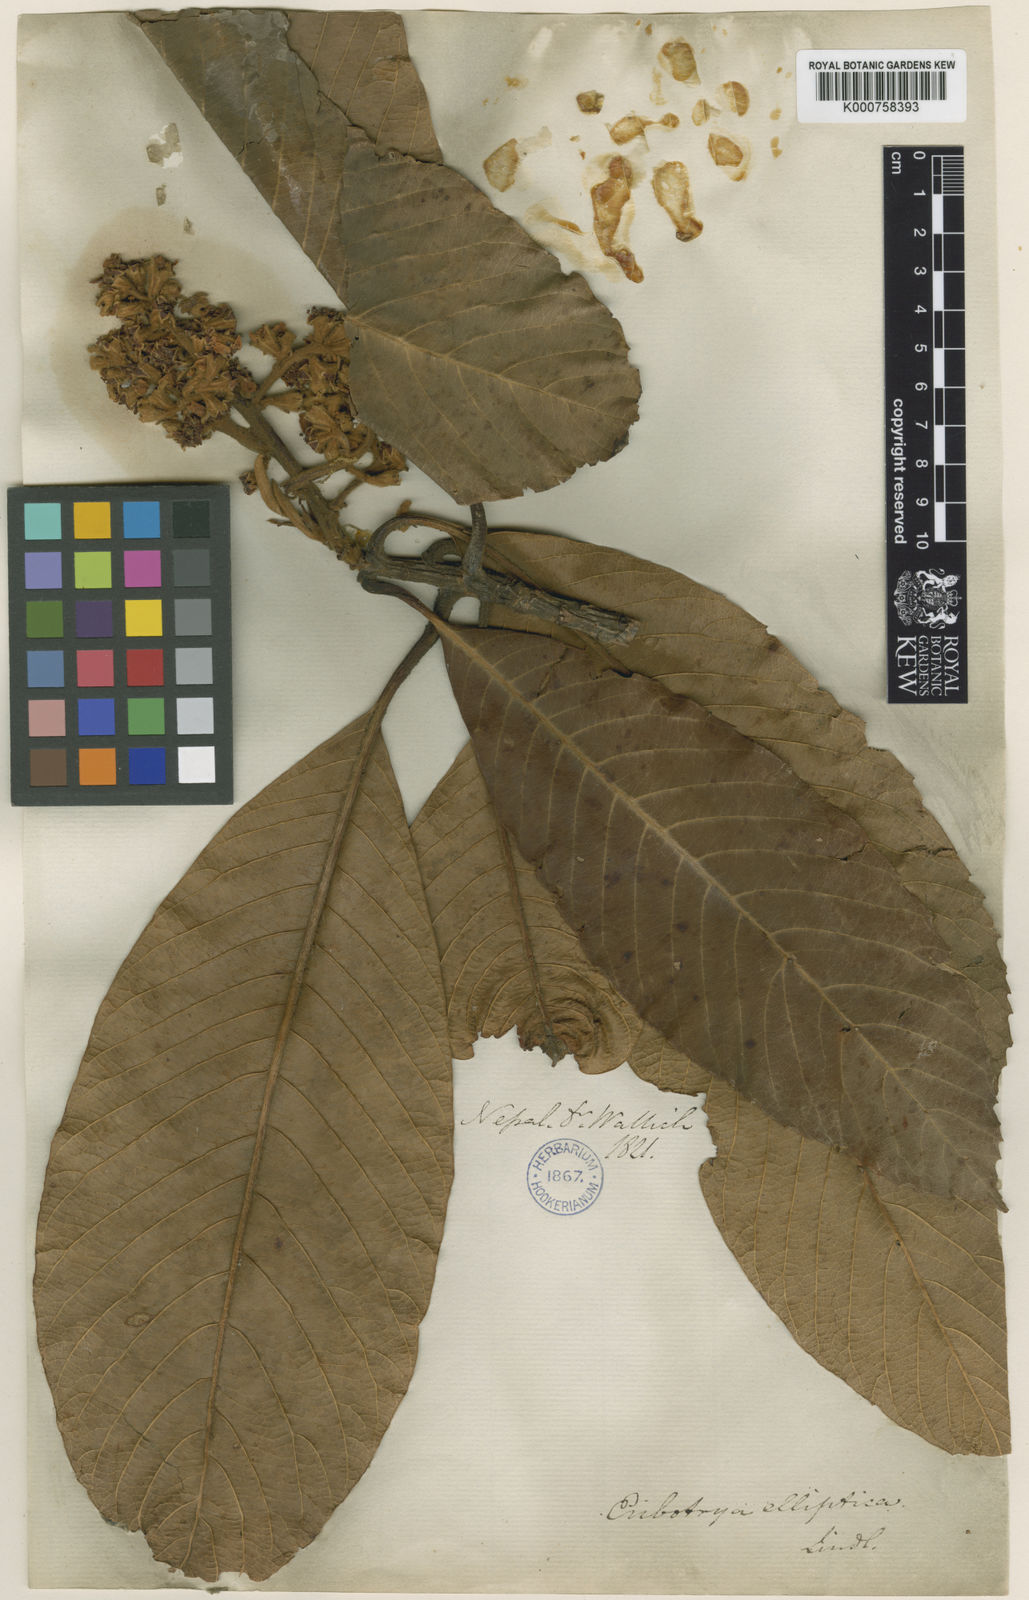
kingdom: Plantae
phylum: Tracheophyta
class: Magnoliopsida
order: Rosales
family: Rosaceae
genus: Rhaphiolepis
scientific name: Rhaphiolepis elliptica
